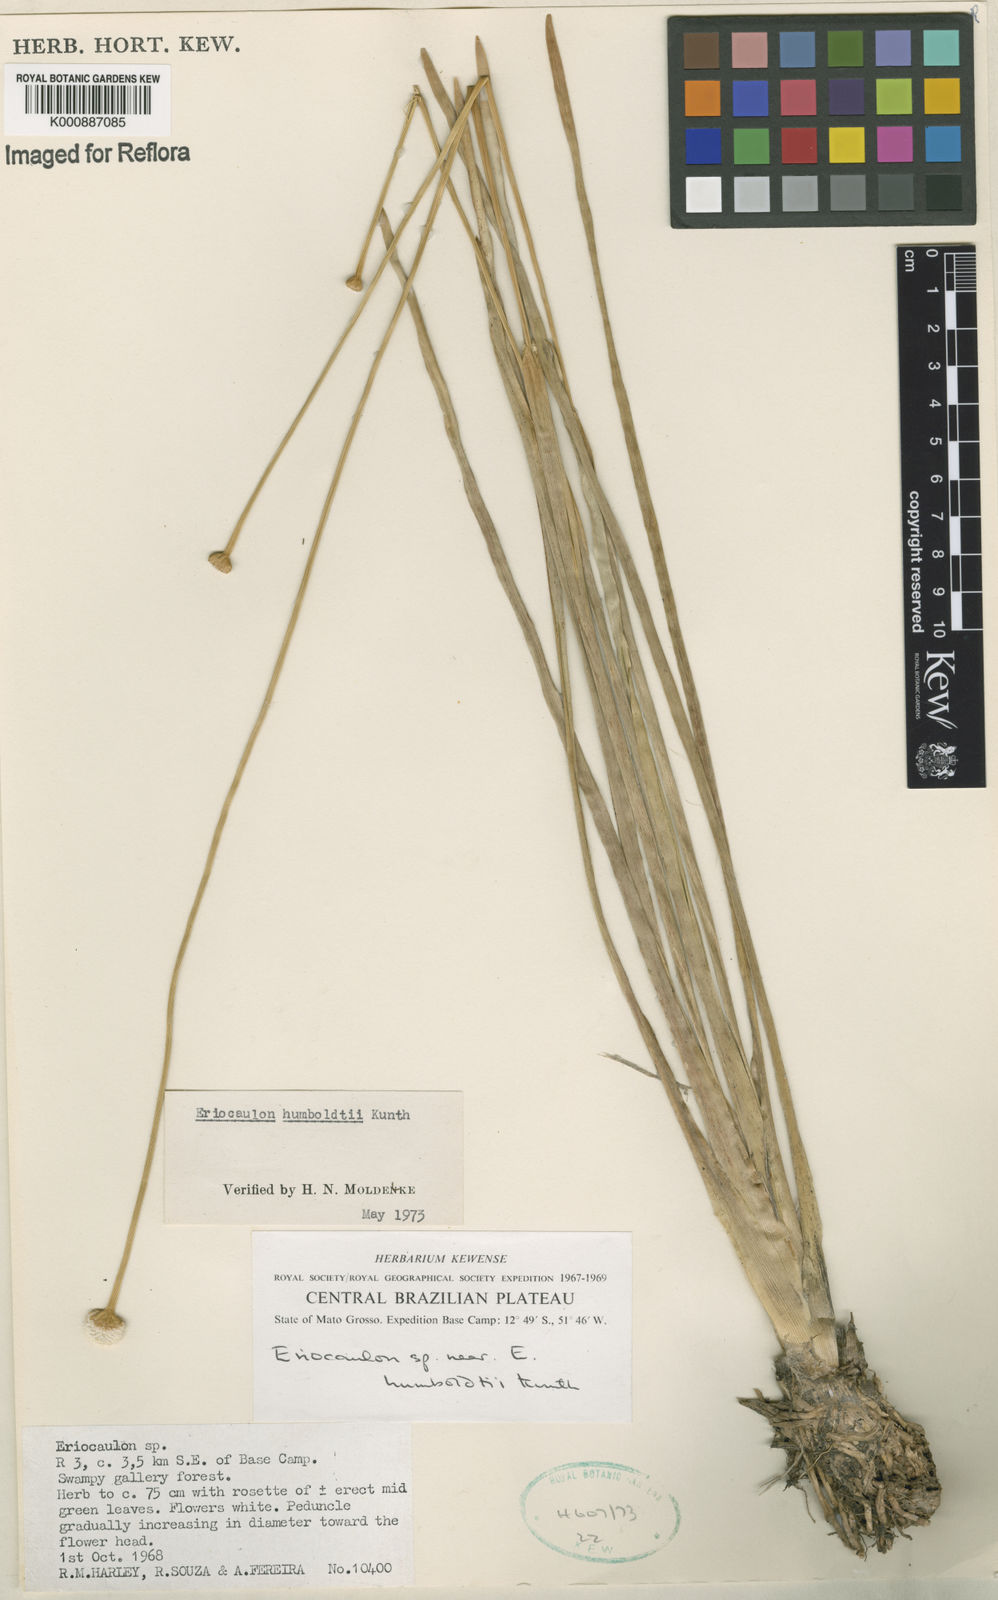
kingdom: Plantae
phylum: Tracheophyta
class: Liliopsida
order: Poales
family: Eriocaulaceae
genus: Eriocaulon
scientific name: Eriocaulon humboldtii
